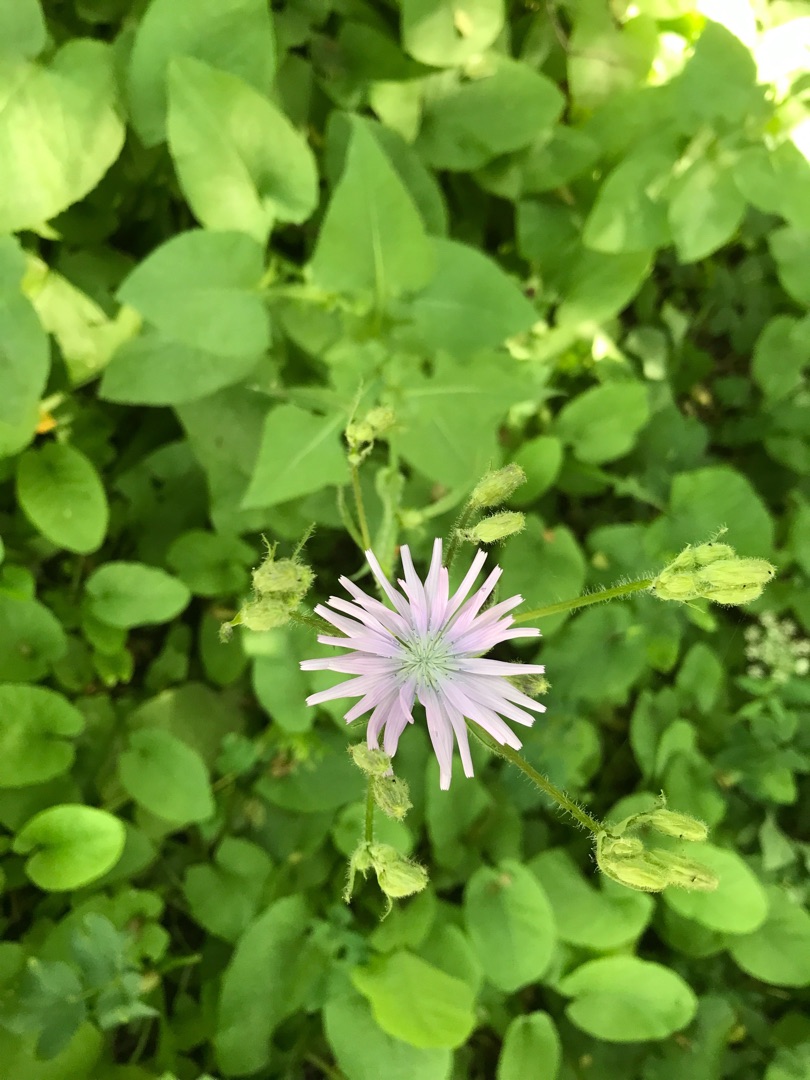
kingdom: Plantae
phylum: Tracheophyta
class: Magnoliopsida
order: Asterales
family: Asteraceae
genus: Lactuca
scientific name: Lactuca macrophylla
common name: Kæmpe-salat
